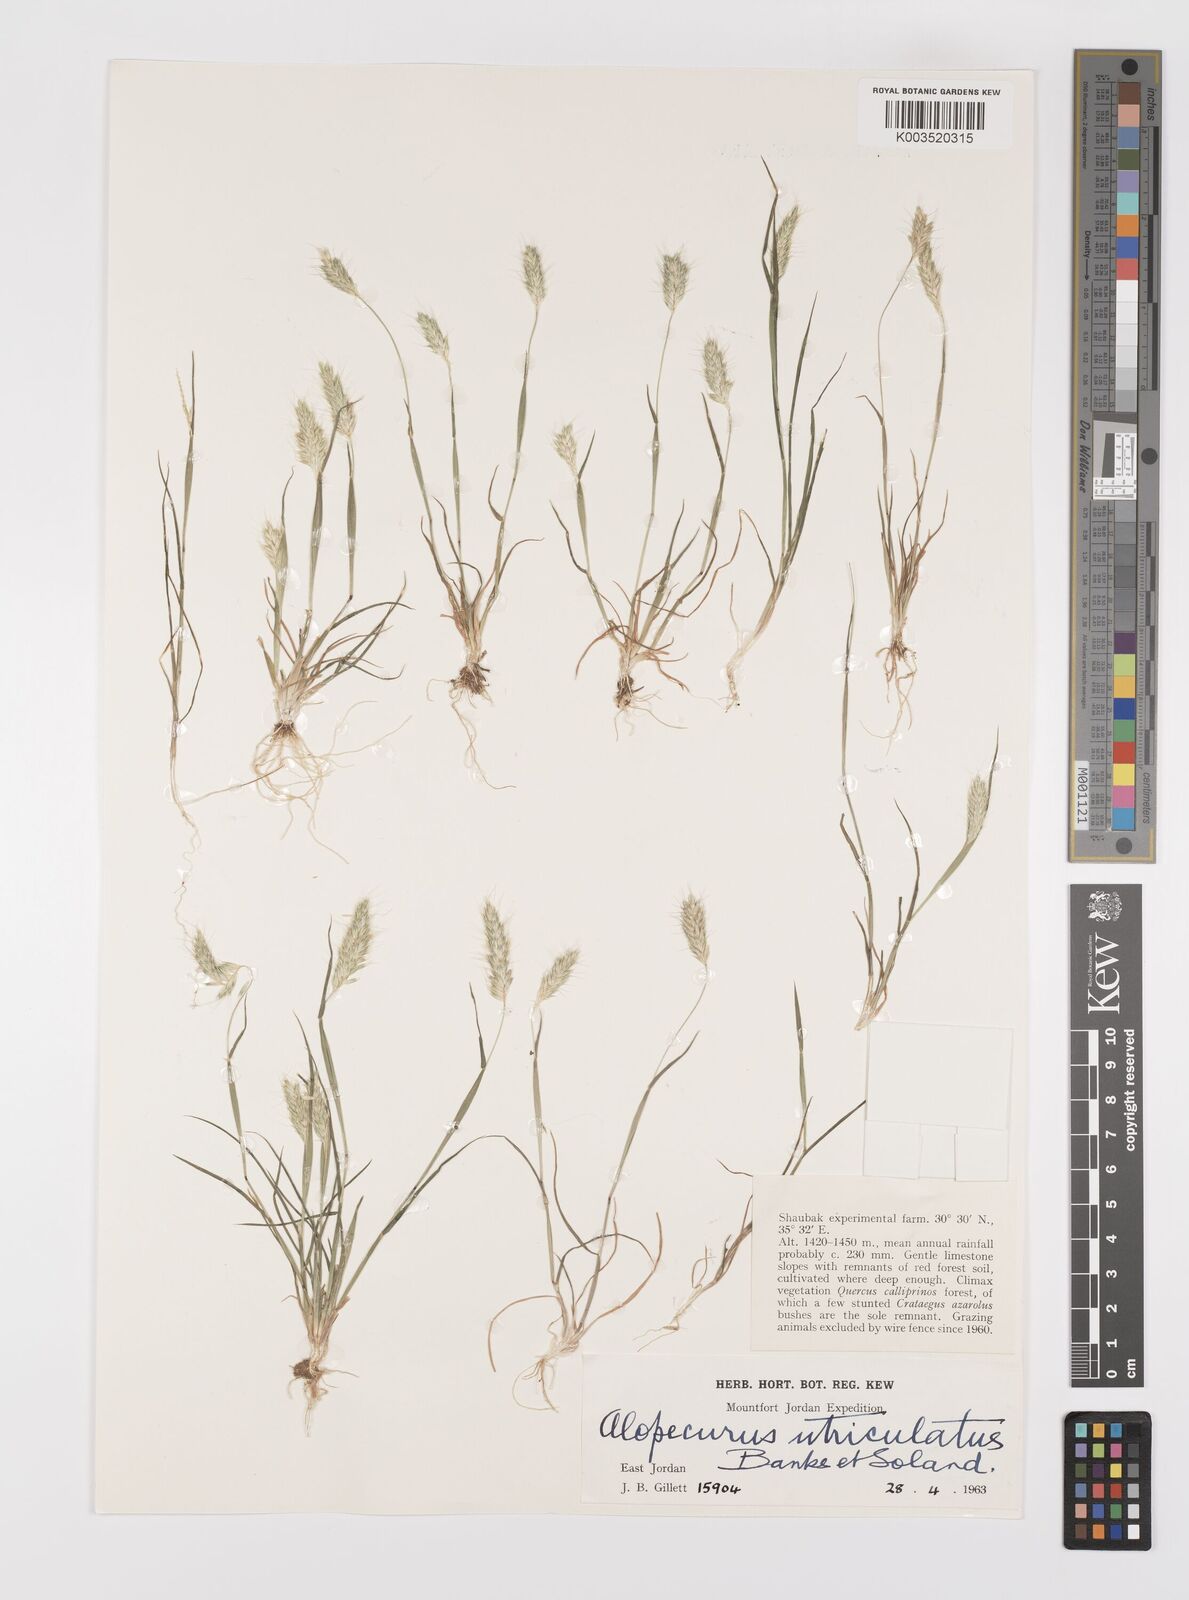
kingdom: Plantae
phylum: Tracheophyta
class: Liliopsida
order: Poales
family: Poaceae
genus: Alopecurus
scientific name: Alopecurus utriculatus
